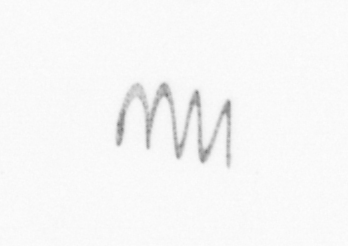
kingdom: Chromista
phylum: Ochrophyta
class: Bacillariophyceae
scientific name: Bacillariophyceae
